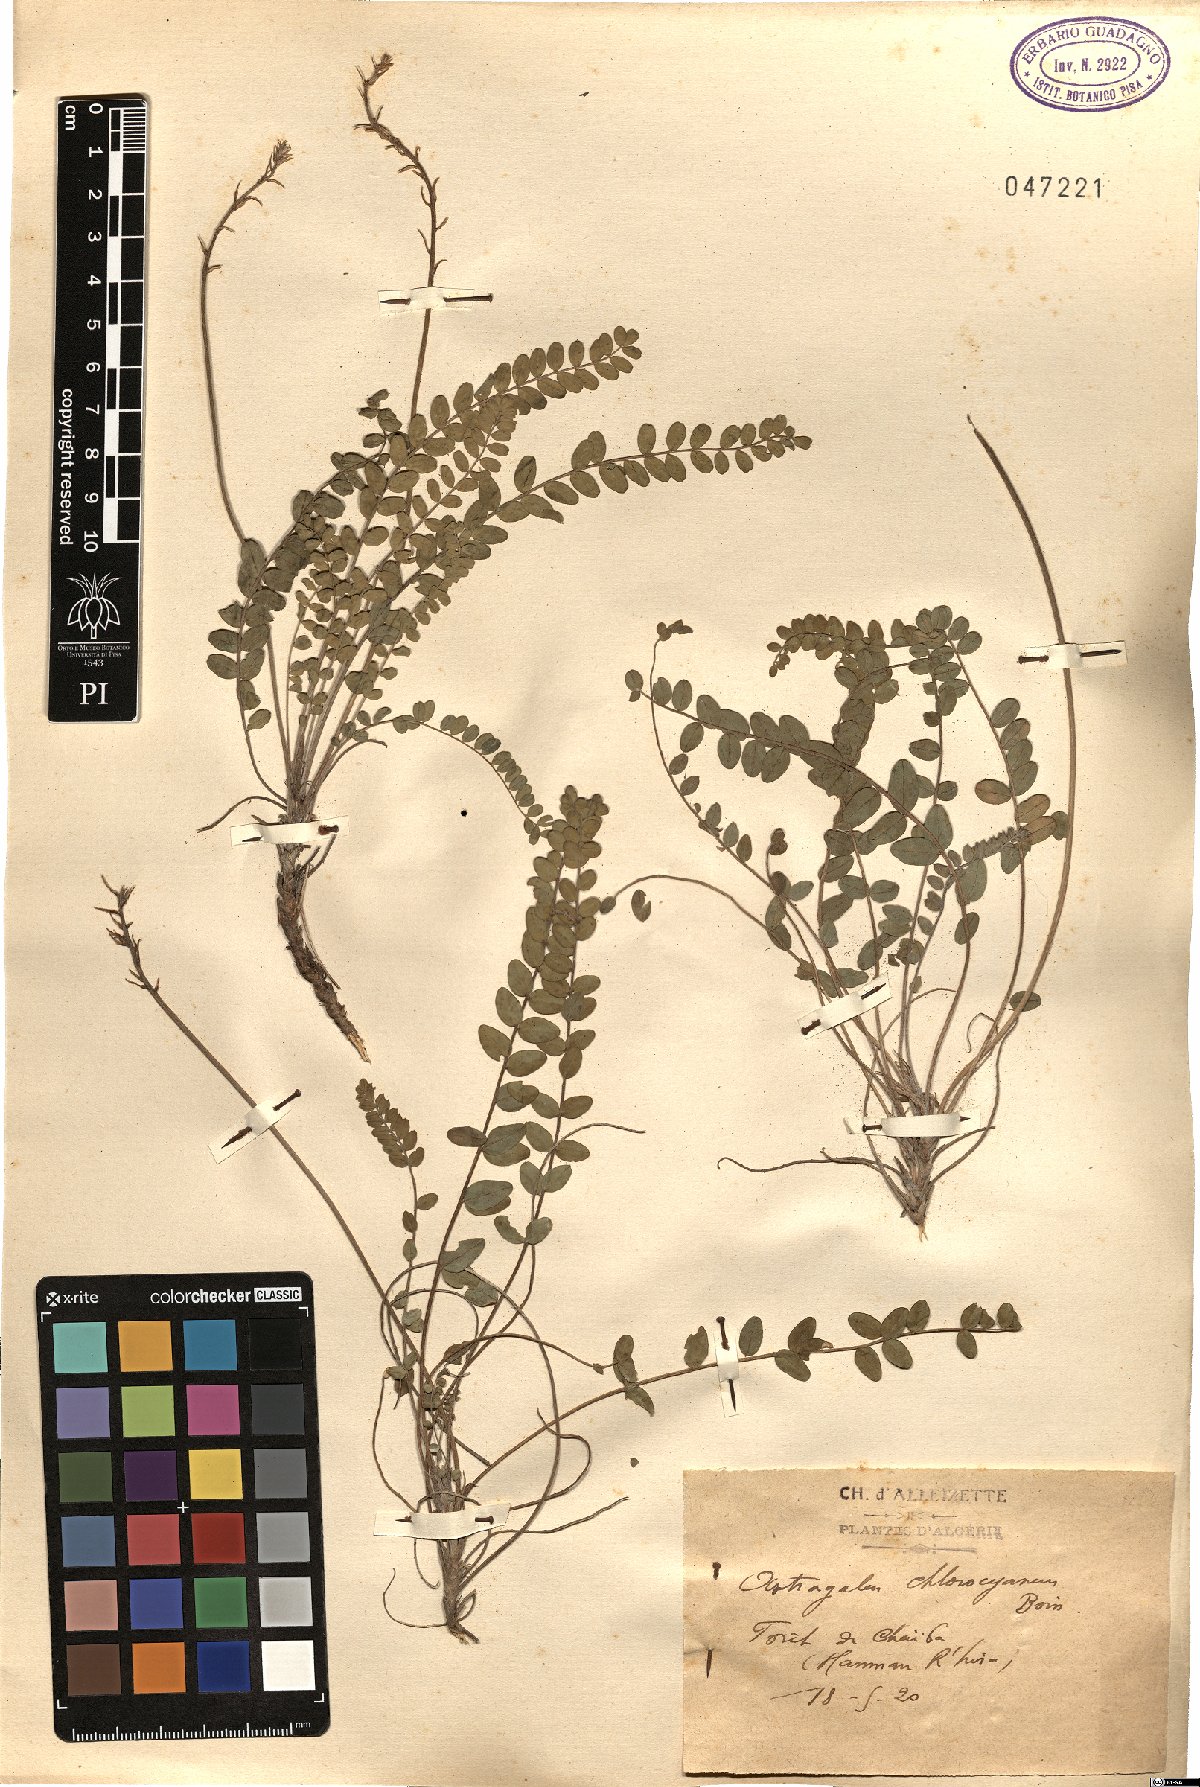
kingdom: Plantae
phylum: Tracheophyta
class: Magnoliopsida
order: Fabales
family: Fabaceae
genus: Astragalus
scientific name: Astragalus monspessulanus
